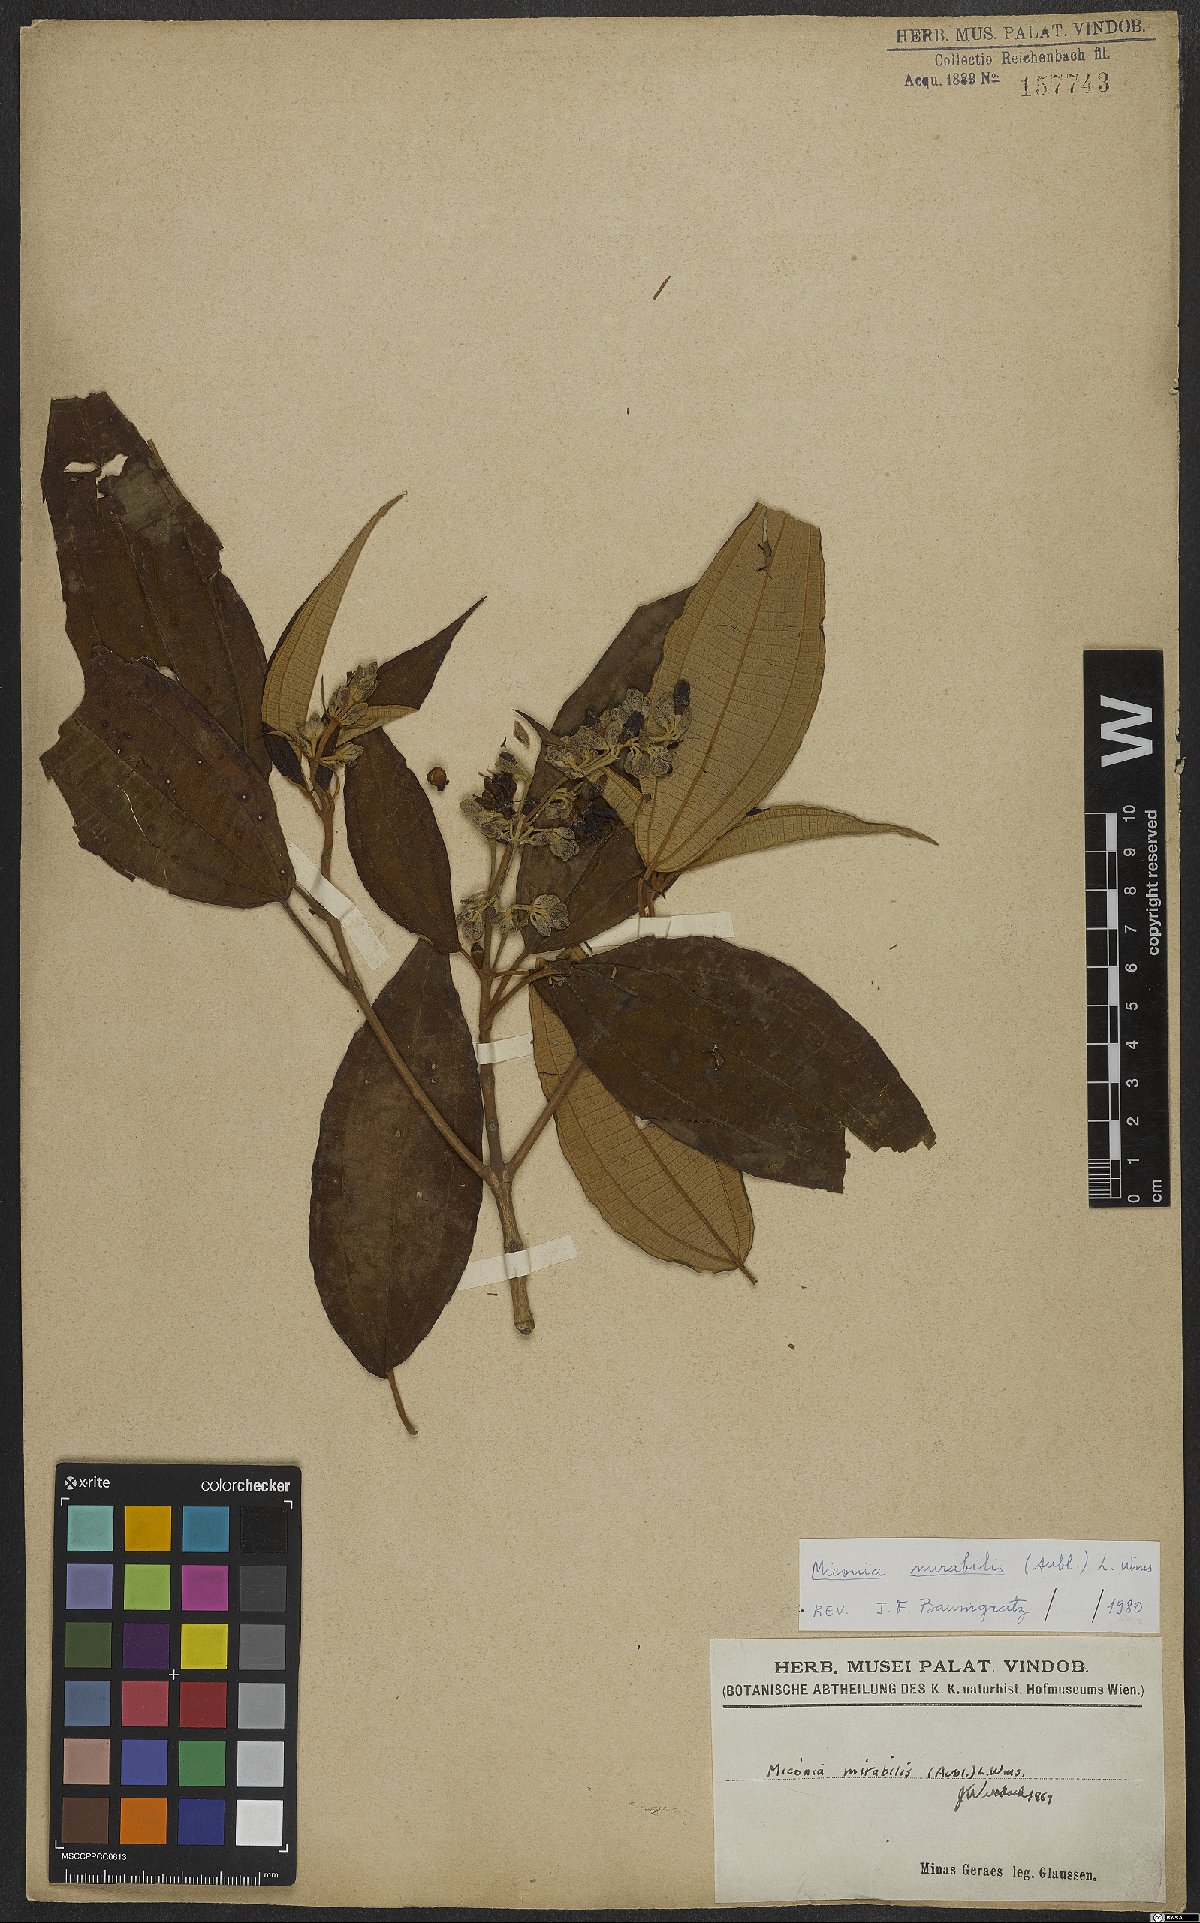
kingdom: Plantae
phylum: Tracheophyta
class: Magnoliopsida
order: Myrtales
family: Melastomataceae
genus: Miconia
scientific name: Miconia mirabilis
